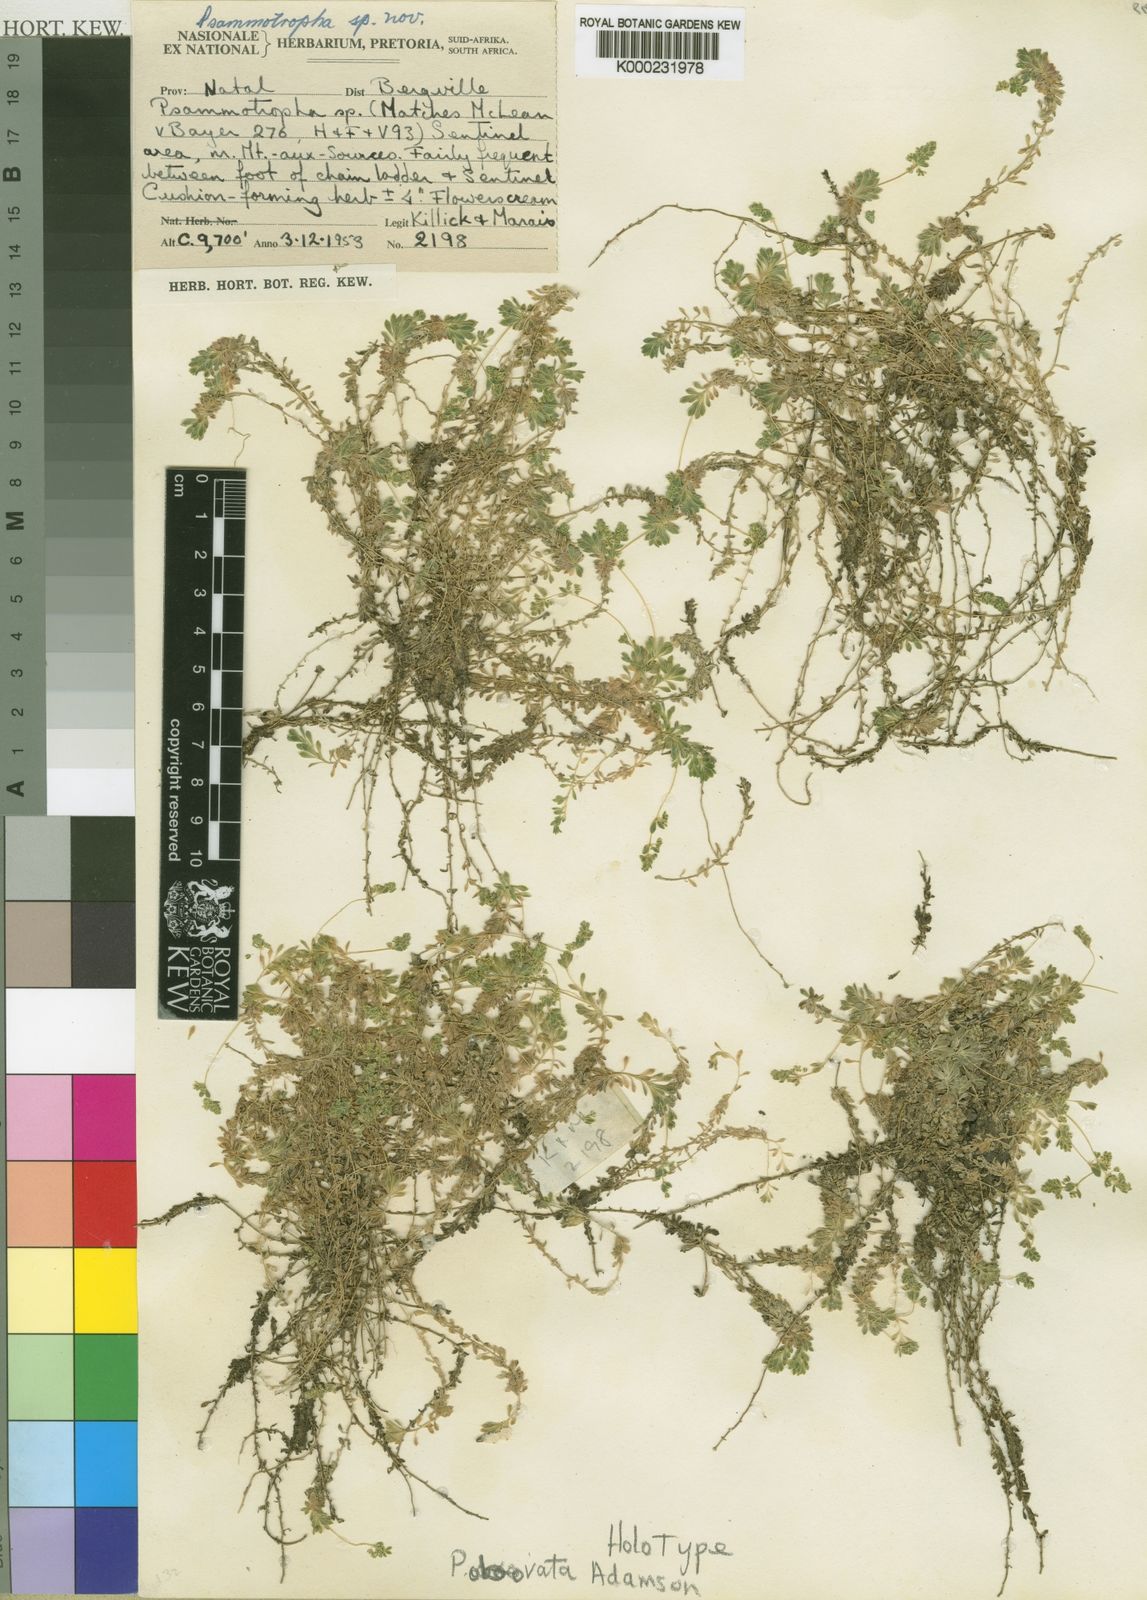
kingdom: Plantae
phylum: Tracheophyta
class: Magnoliopsida
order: Caryophyllales
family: Molluginaceae
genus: Psammotropha
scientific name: Psammotropha obovata
